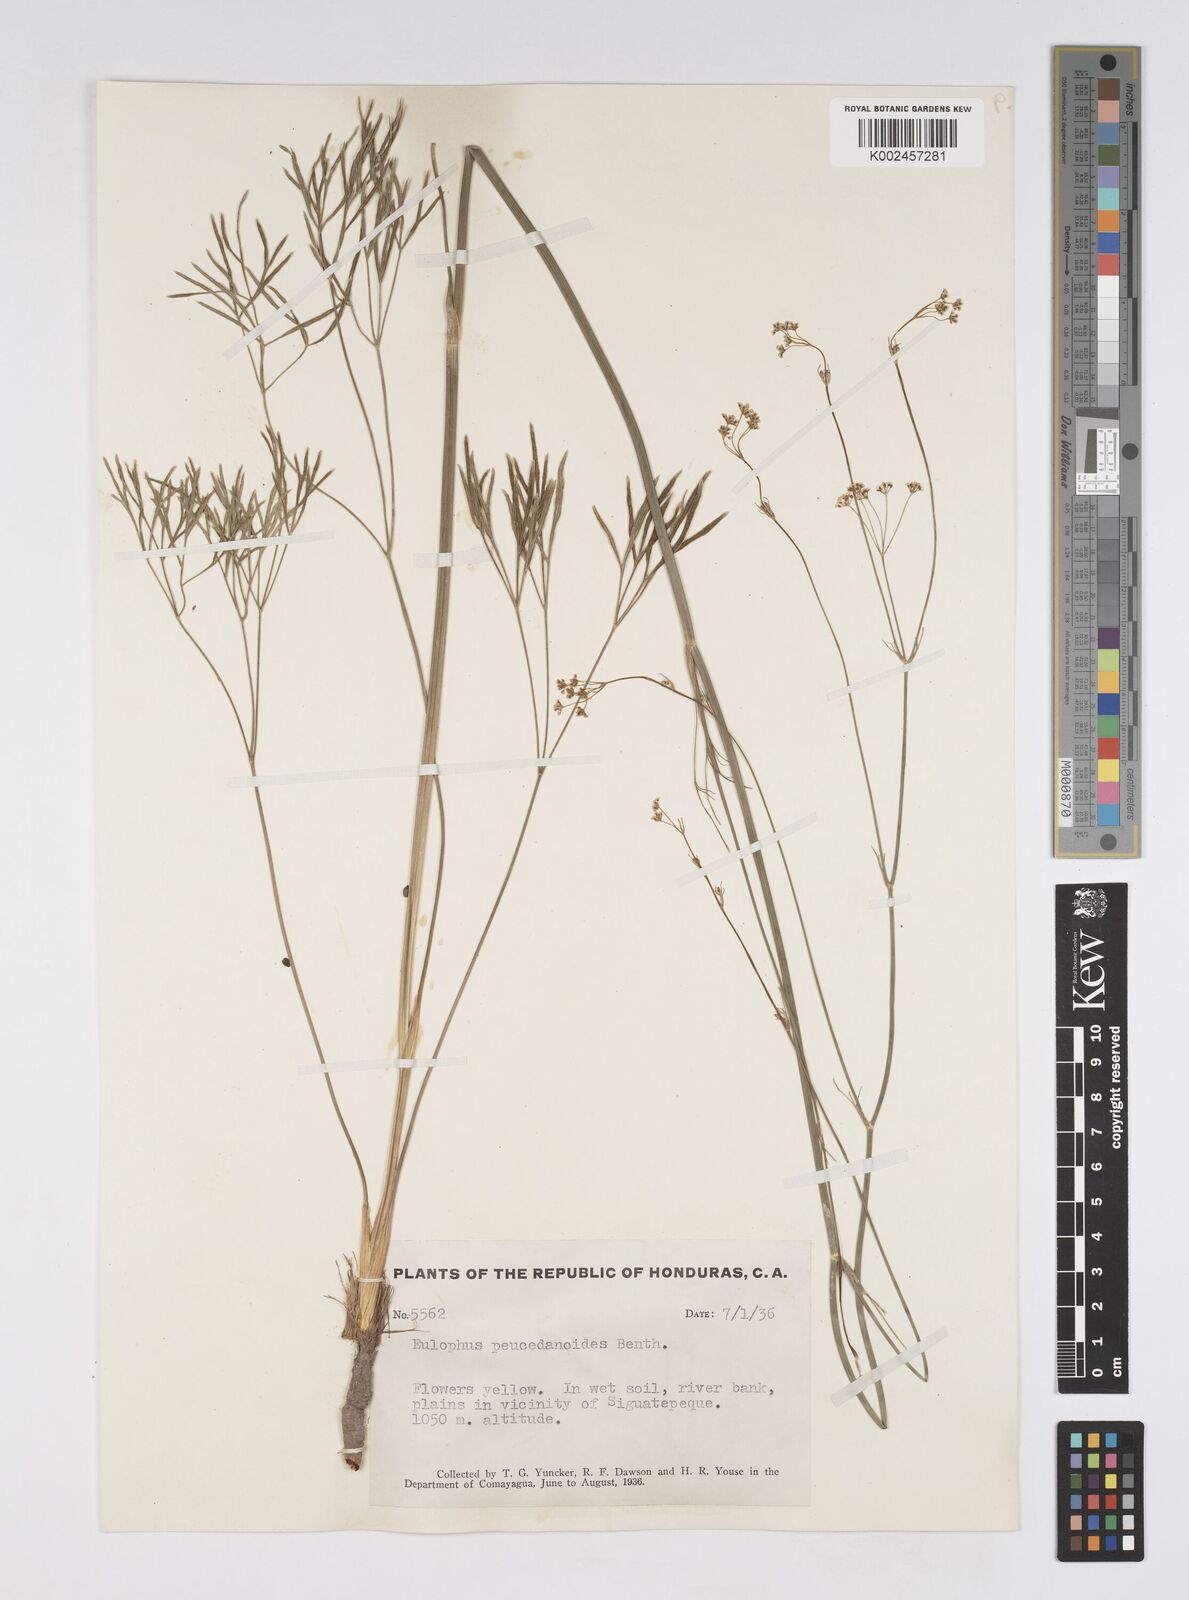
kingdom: Plantae
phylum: Tracheophyta
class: Magnoliopsida
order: Apiales
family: Apiaceae
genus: Donnellsmithia
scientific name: Donnellsmithia juncea
